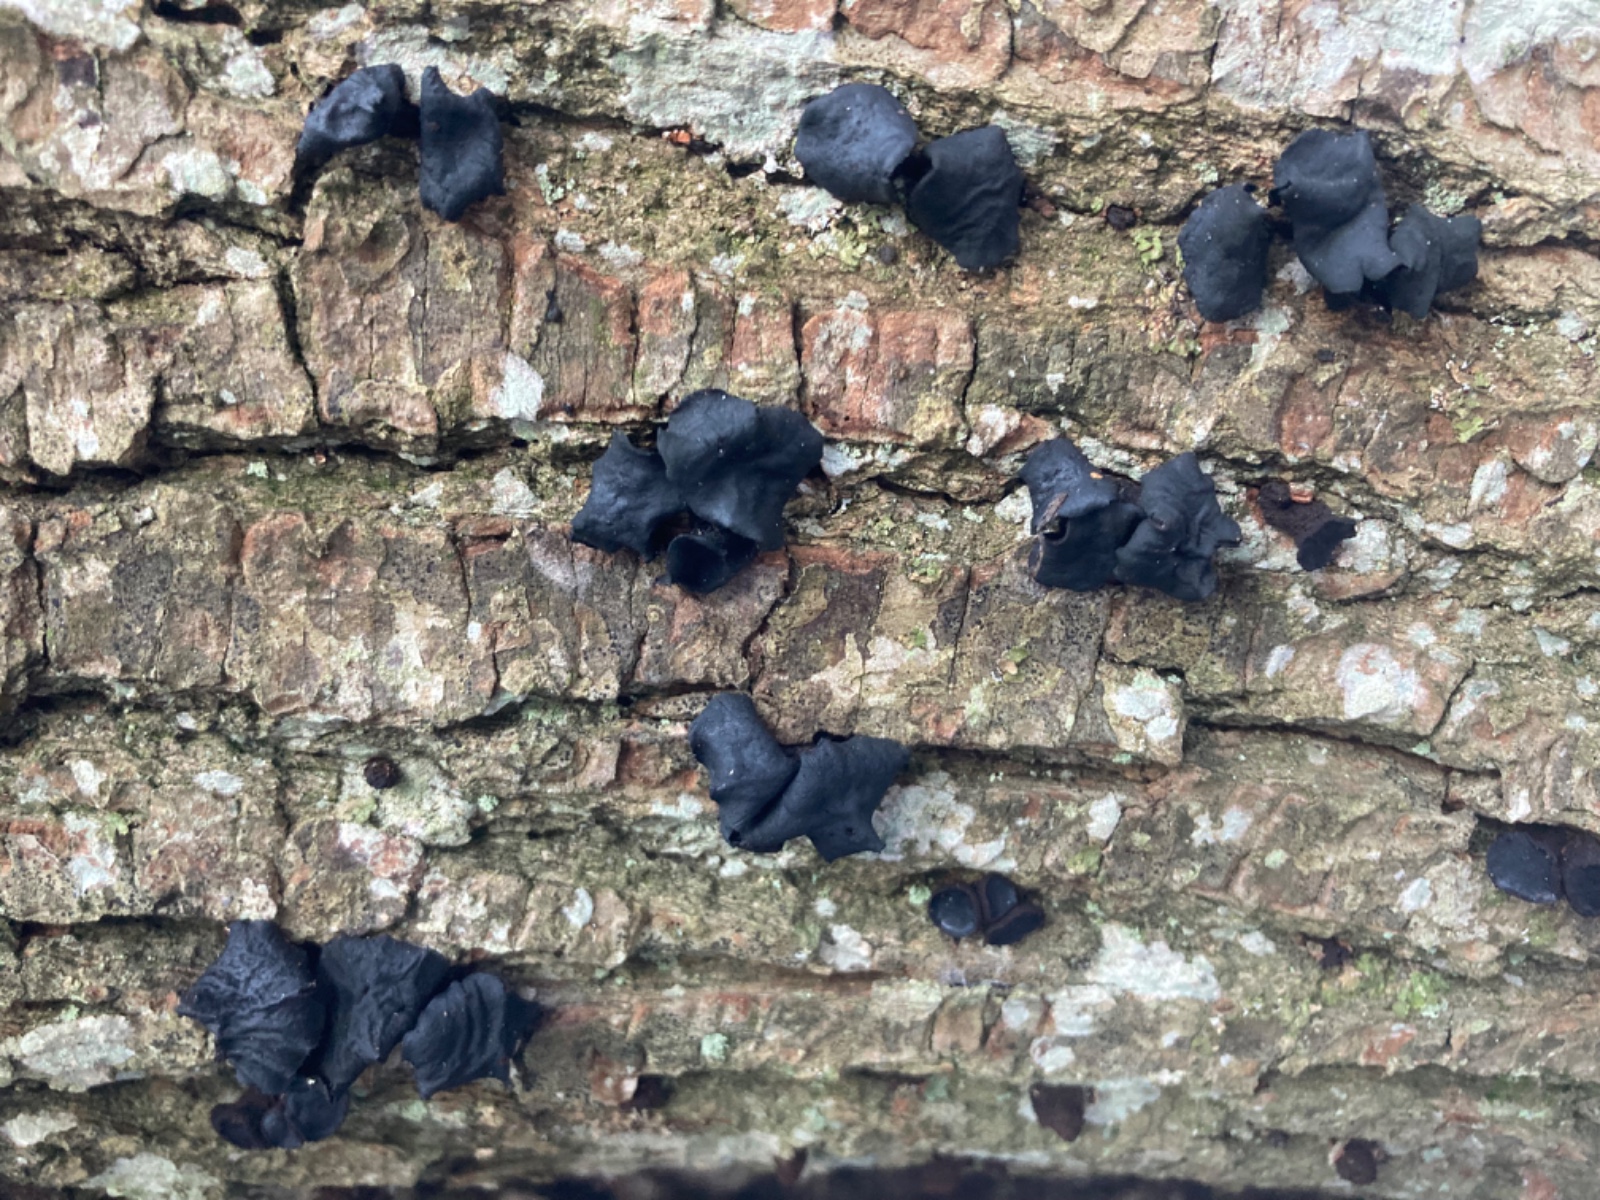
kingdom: Fungi
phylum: Ascomycota
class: Leotiomycetes
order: Phacidiales
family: Phacidiaceae
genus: Bulgaria
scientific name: Bulgaria inquinans
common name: afsmittende topsvamp
